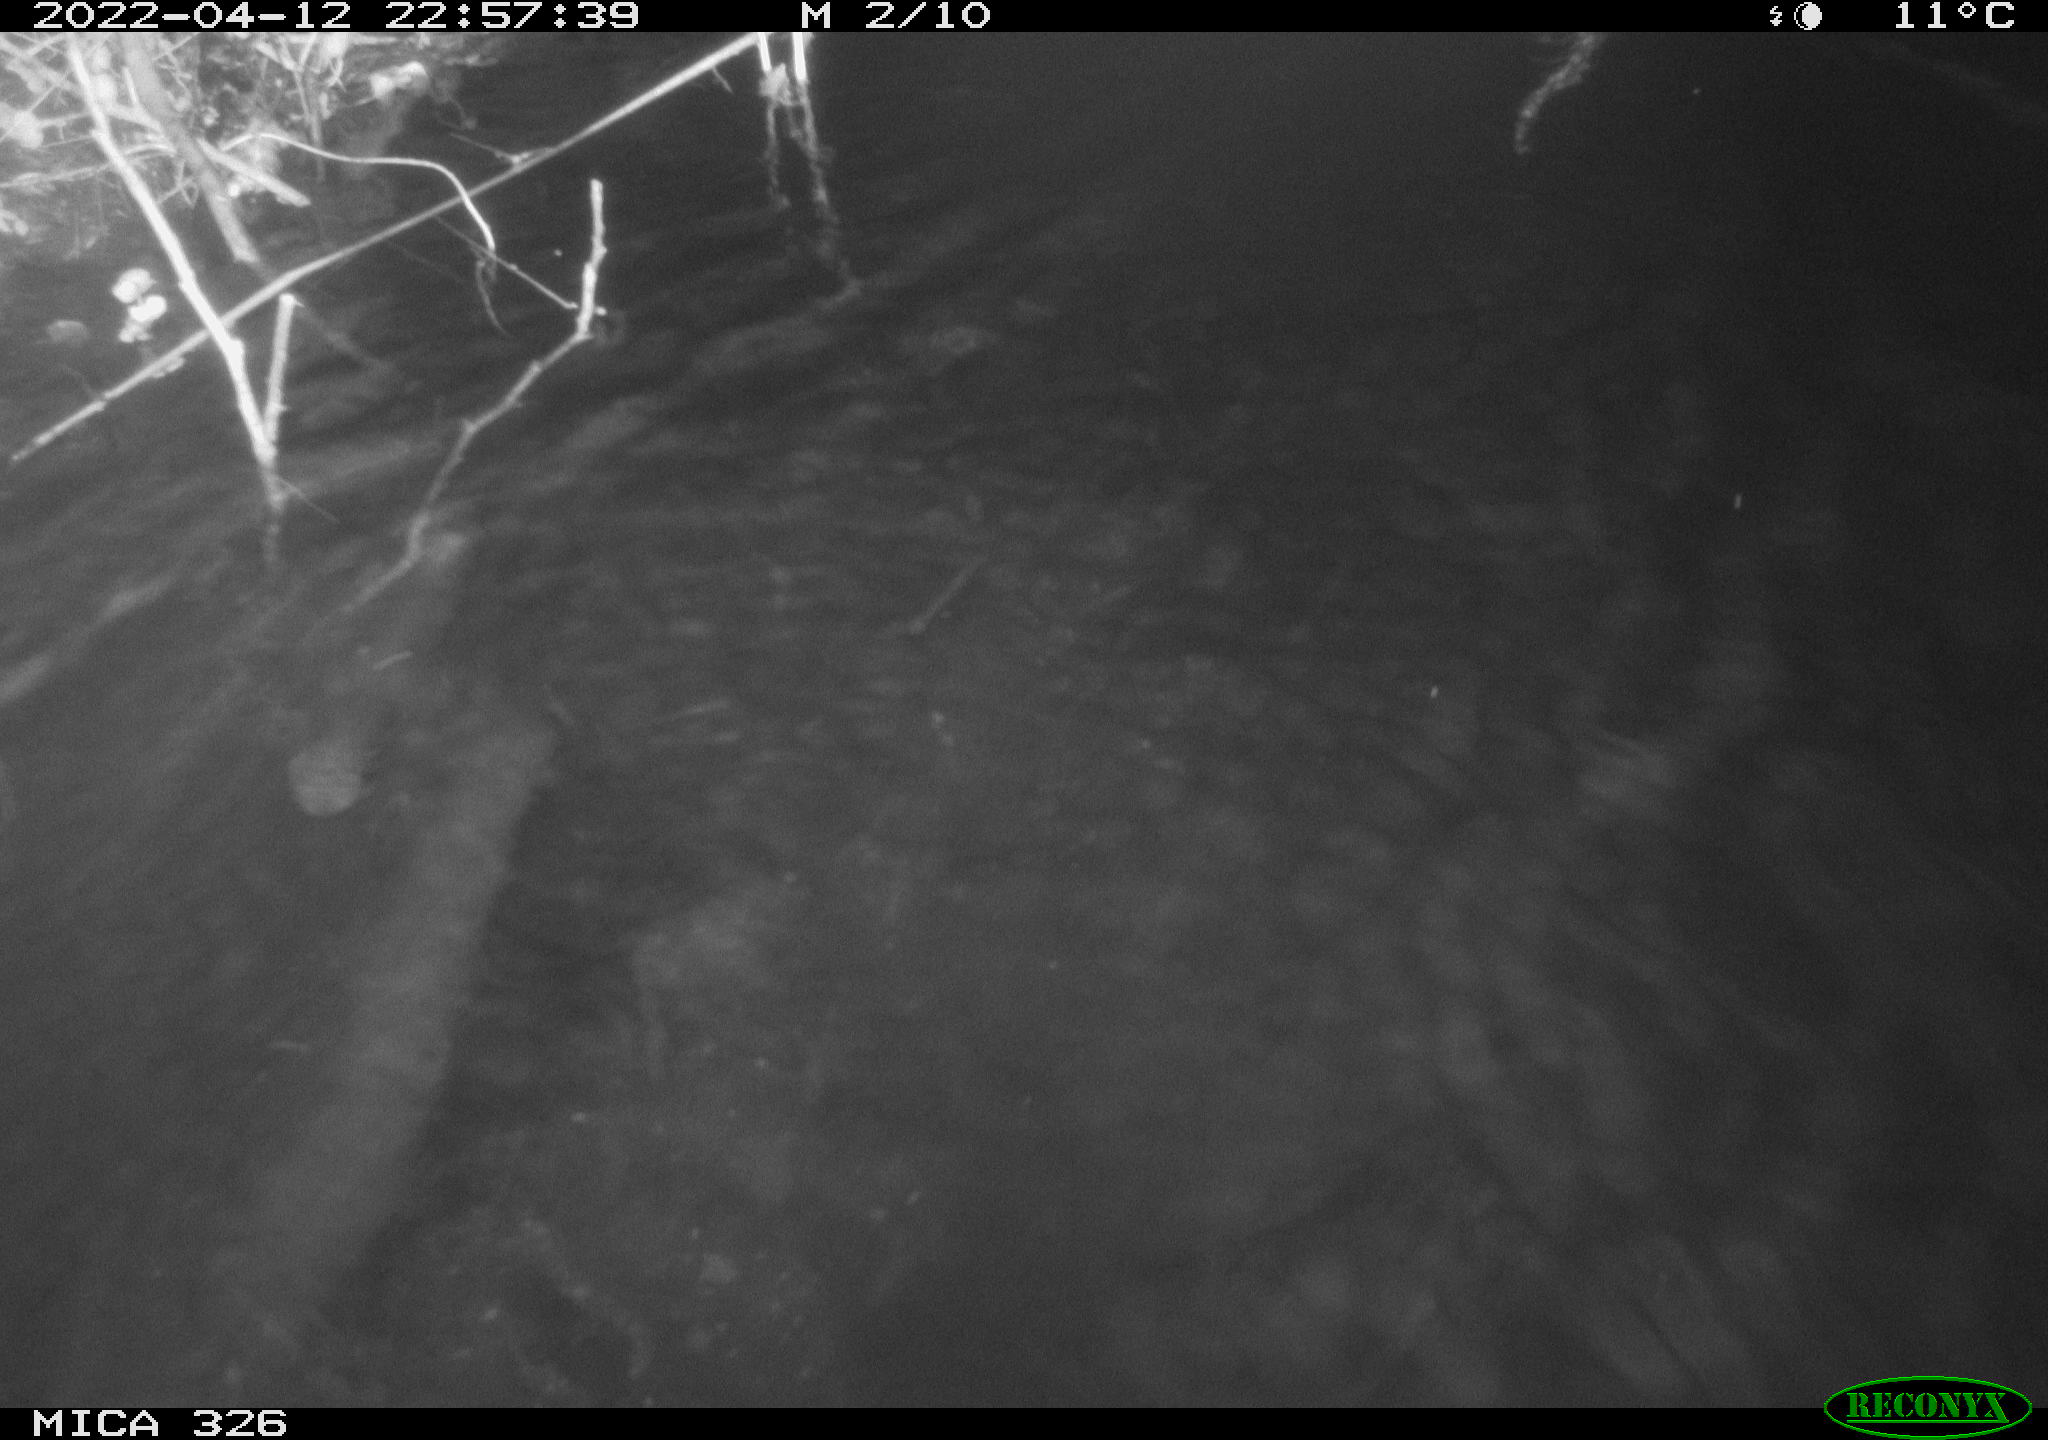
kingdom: Animalia
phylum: Chordata
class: Mammalia
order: Rodentia
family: Cricetidae
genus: Ondatra
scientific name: Ondatra zibethicus
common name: Muskrat
